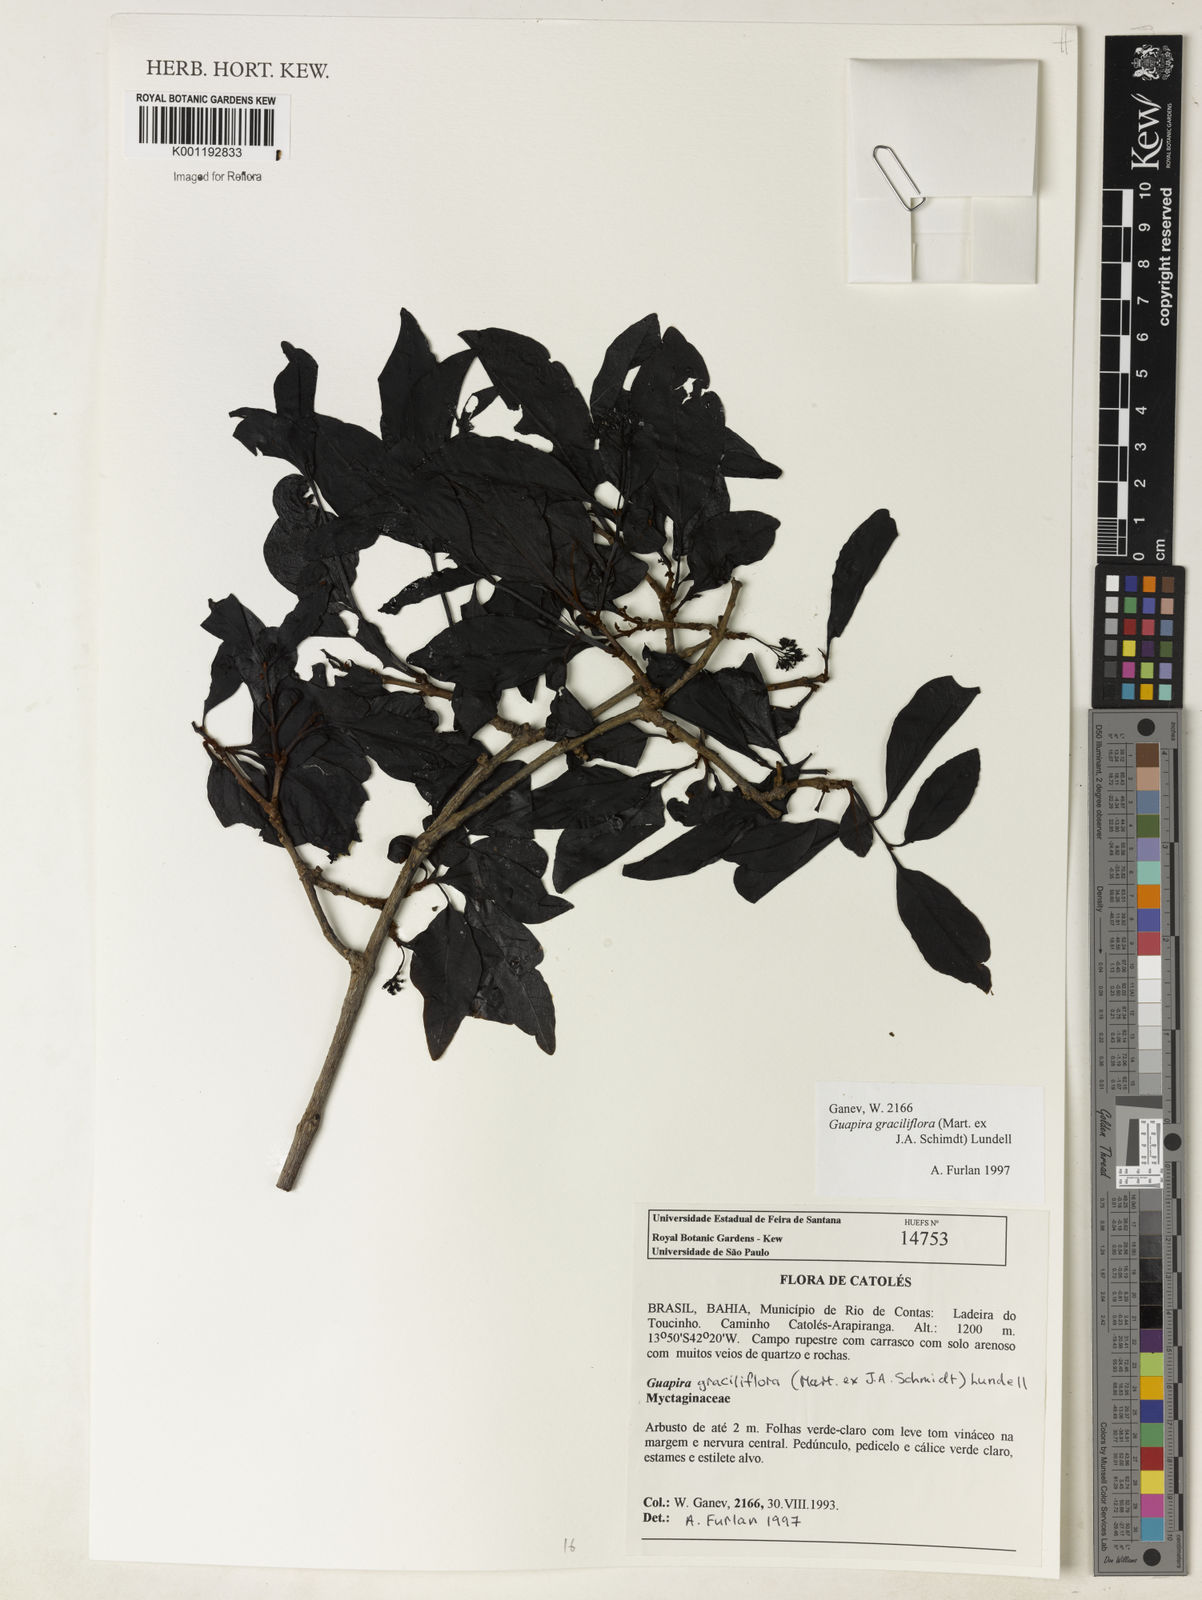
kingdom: Plantae
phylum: Tracheophyta
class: Magnoliopsida
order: Caryophyllales
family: Nyctaginaceae
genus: Guapira
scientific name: Guapira graciliflora
